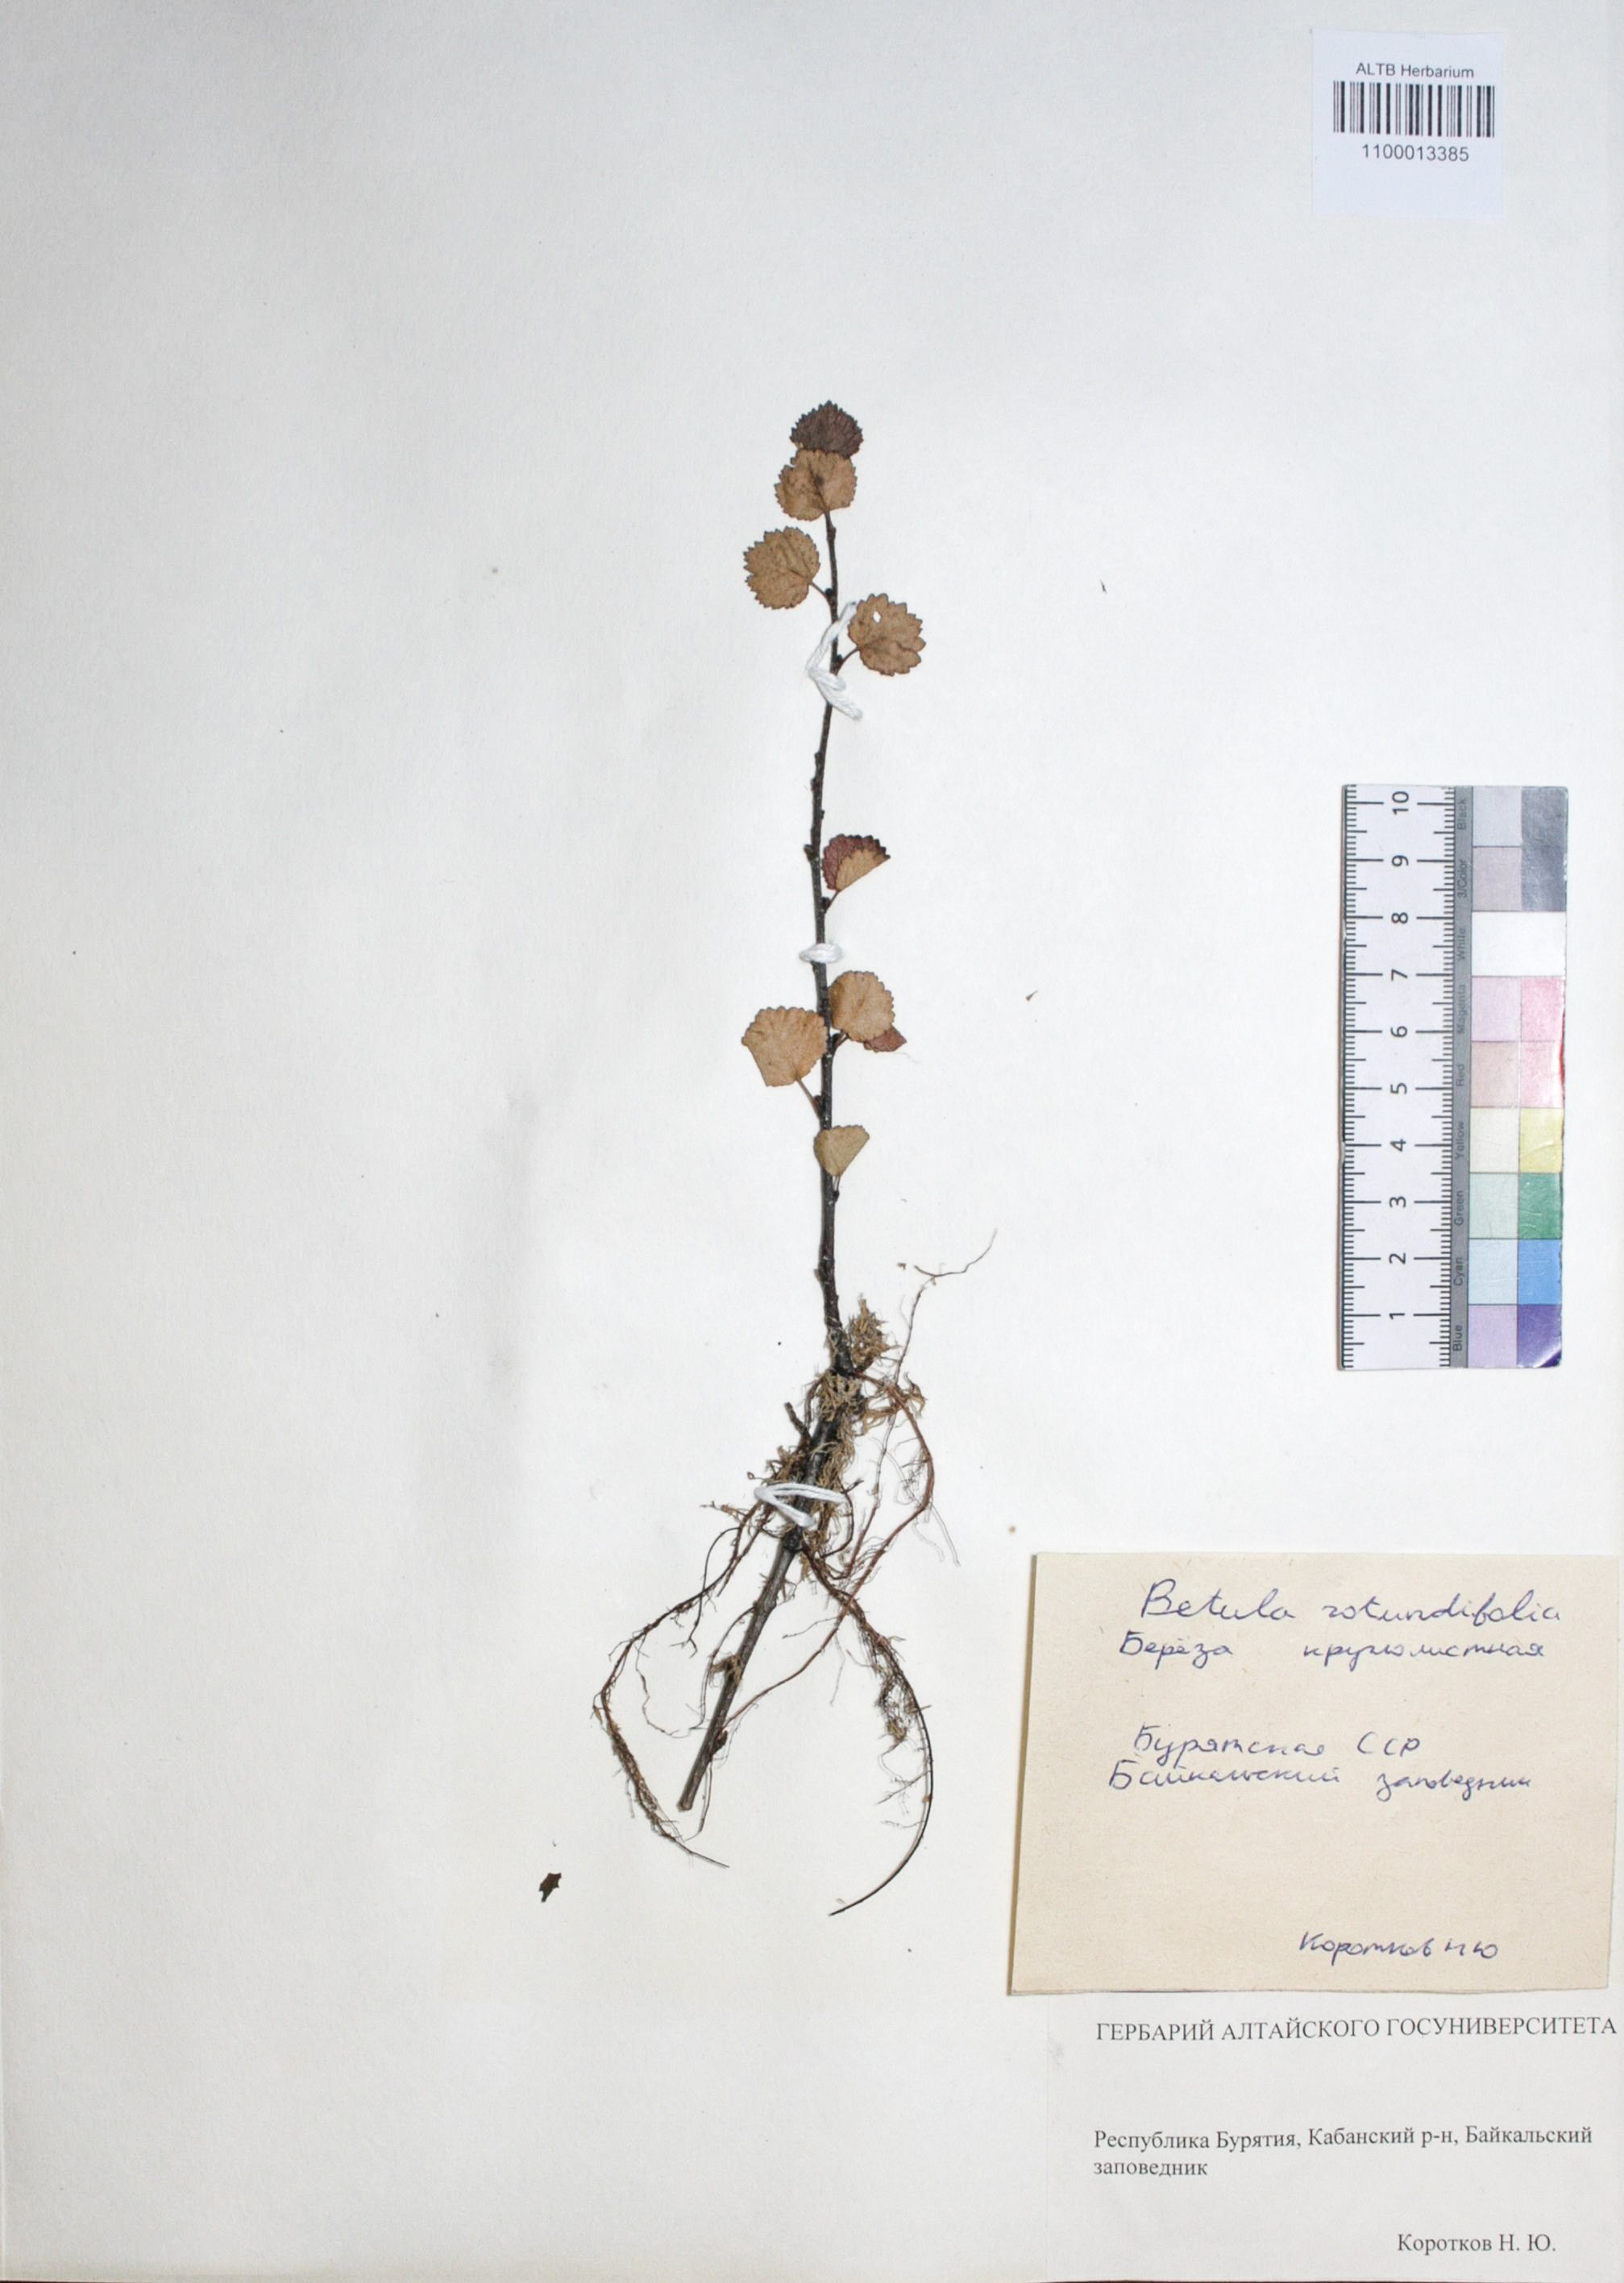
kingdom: Plantae
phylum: Tracheophyta
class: Magnoliopsida
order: Fagales
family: Betulaceae
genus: Betula
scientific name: Betula glandulosa
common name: Dwarf birch
